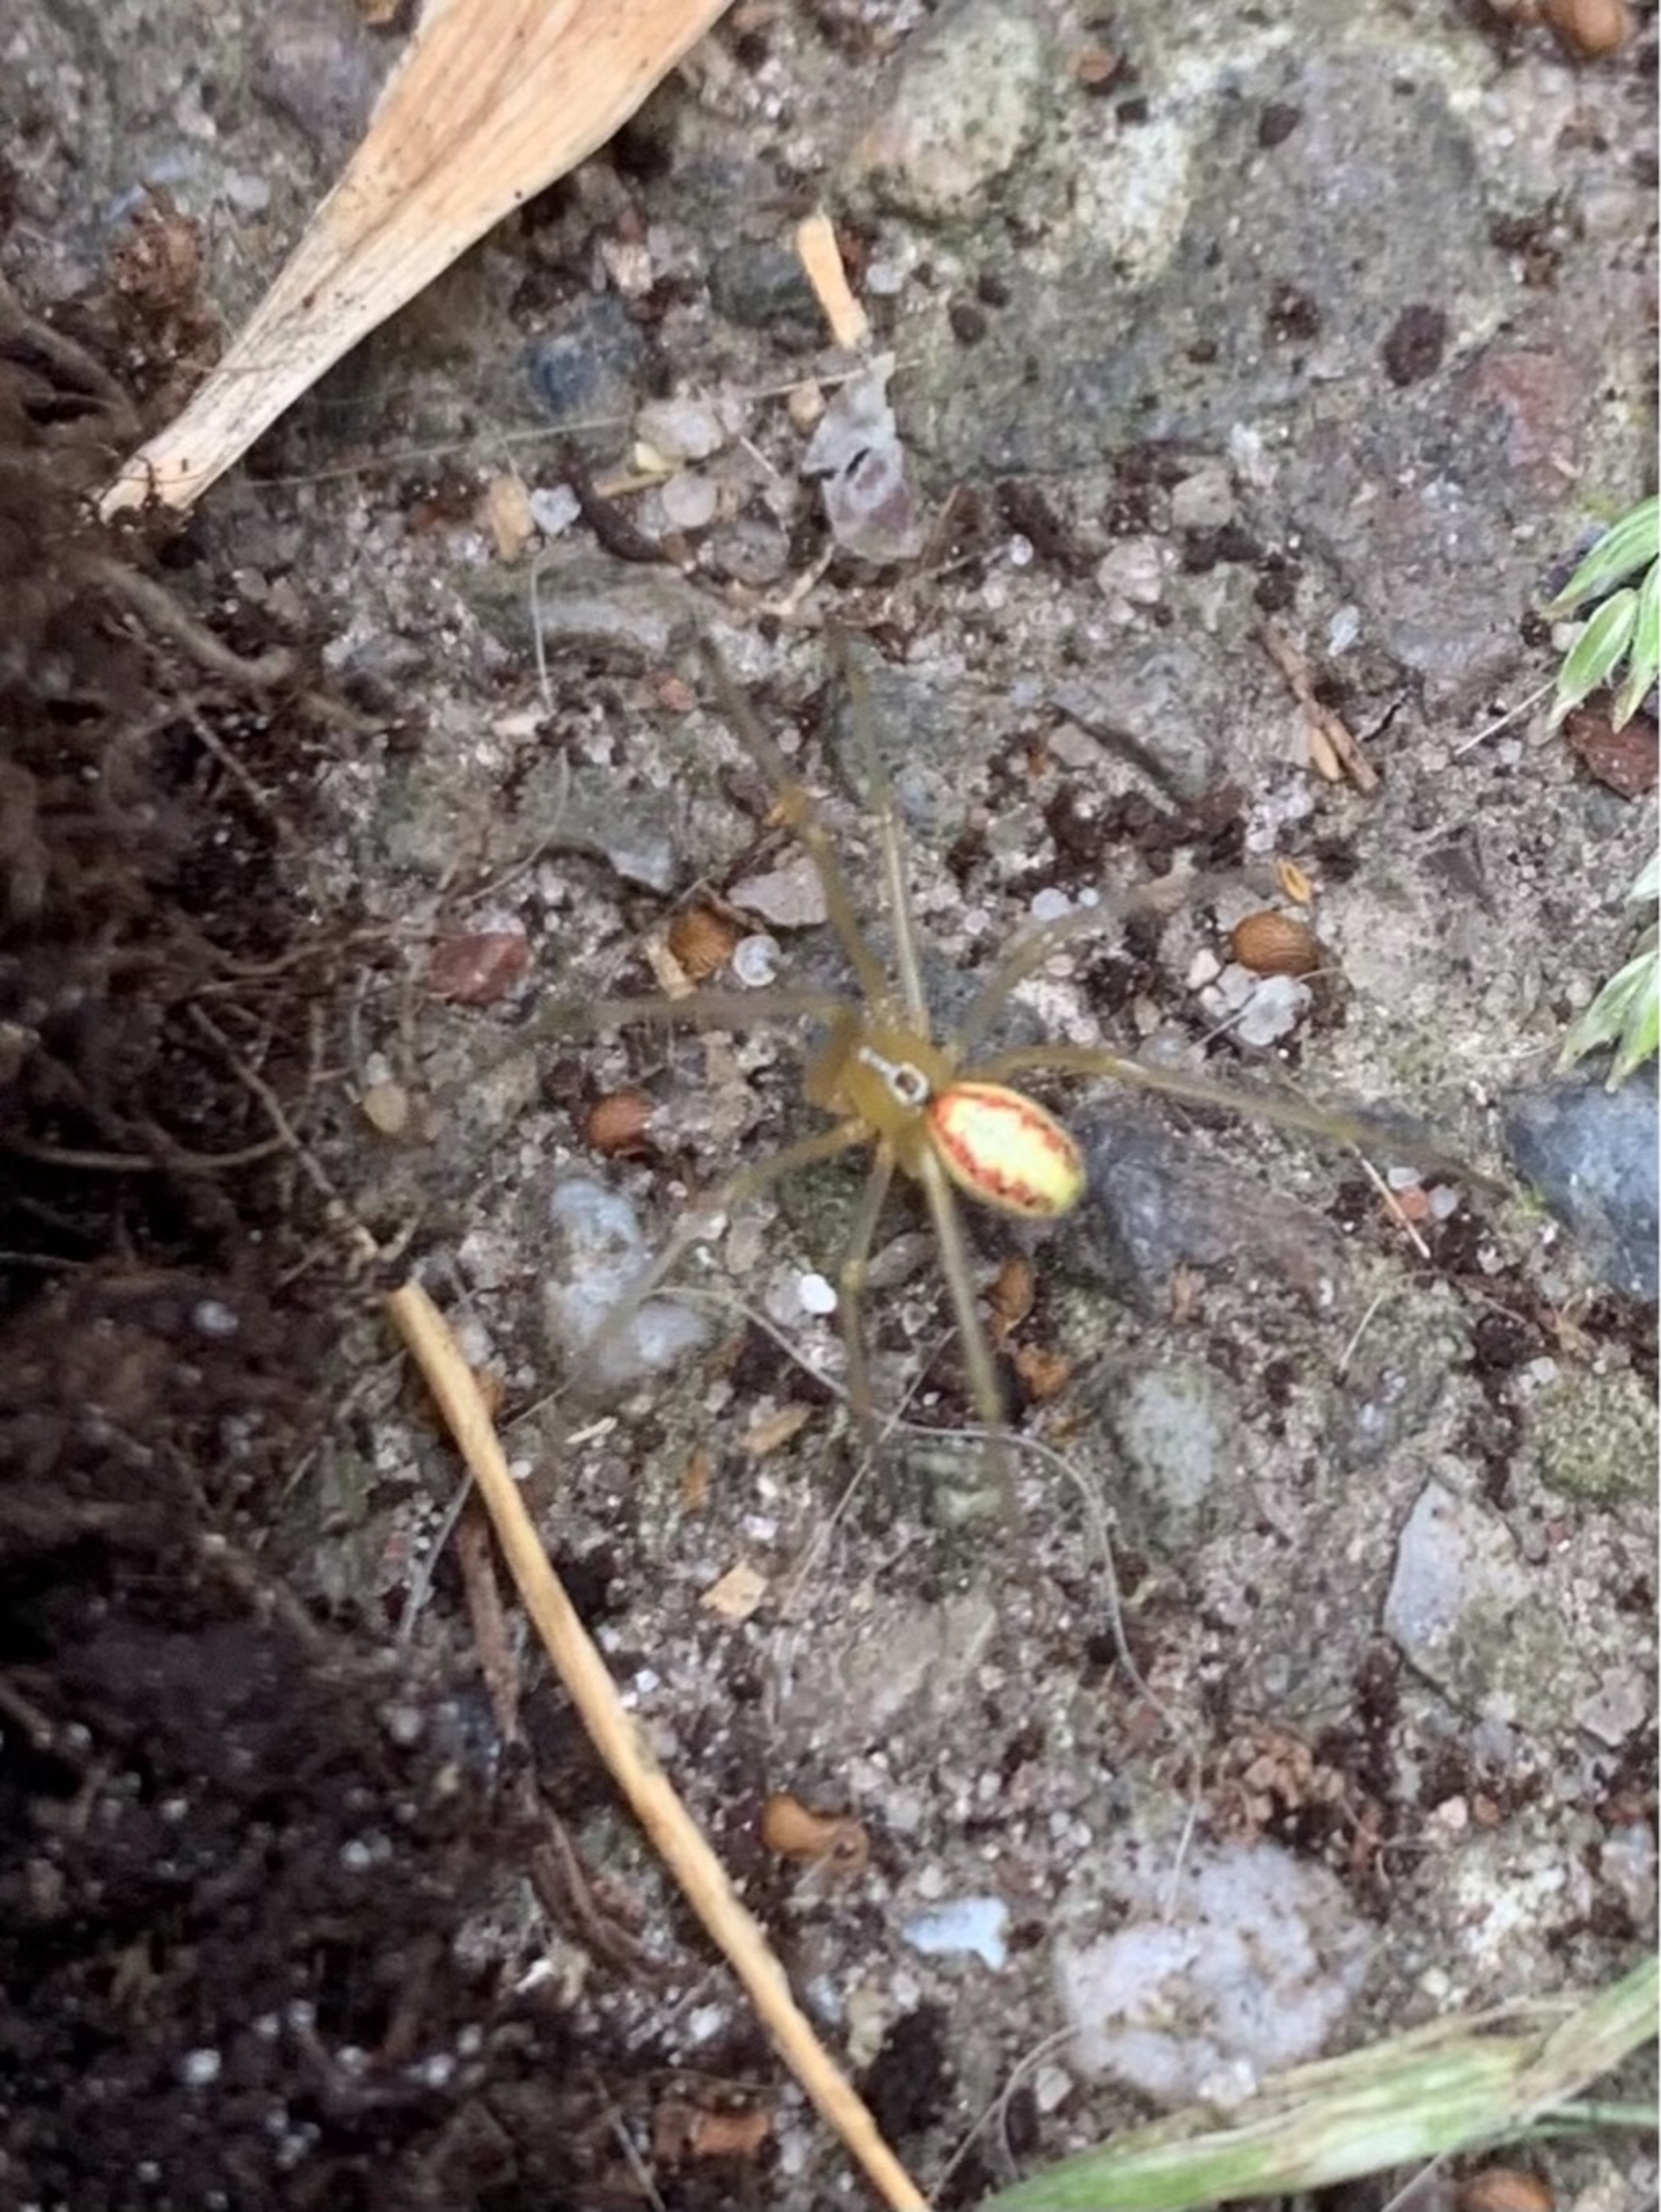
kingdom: Animalia
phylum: Arthropoda
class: Arachnida
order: Araneae
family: Theridiidae
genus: Enoplognatha
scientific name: Enoplognatha
